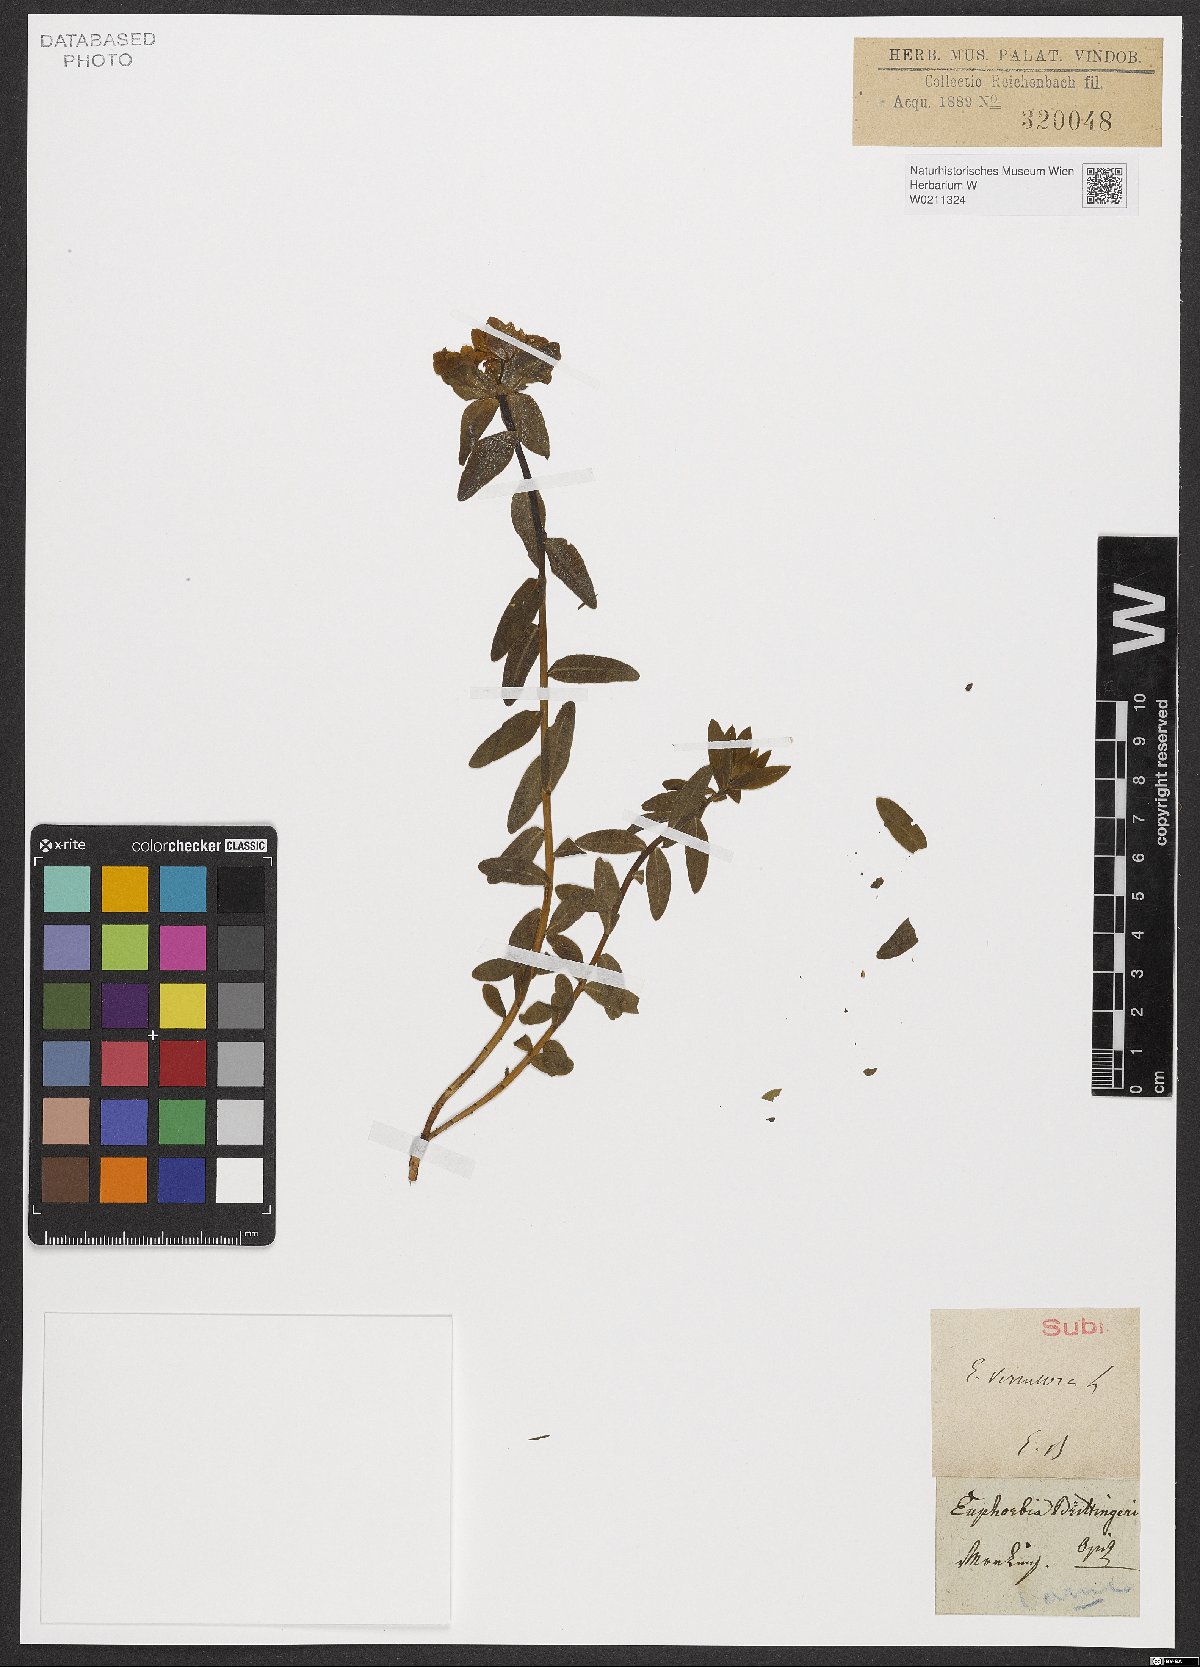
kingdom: Plantae
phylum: Tracheophyta
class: Magnoliopsida
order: Malpighiales
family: Euphorbiaceae
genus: Euphorbia
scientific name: Euphorbia verrucosa
